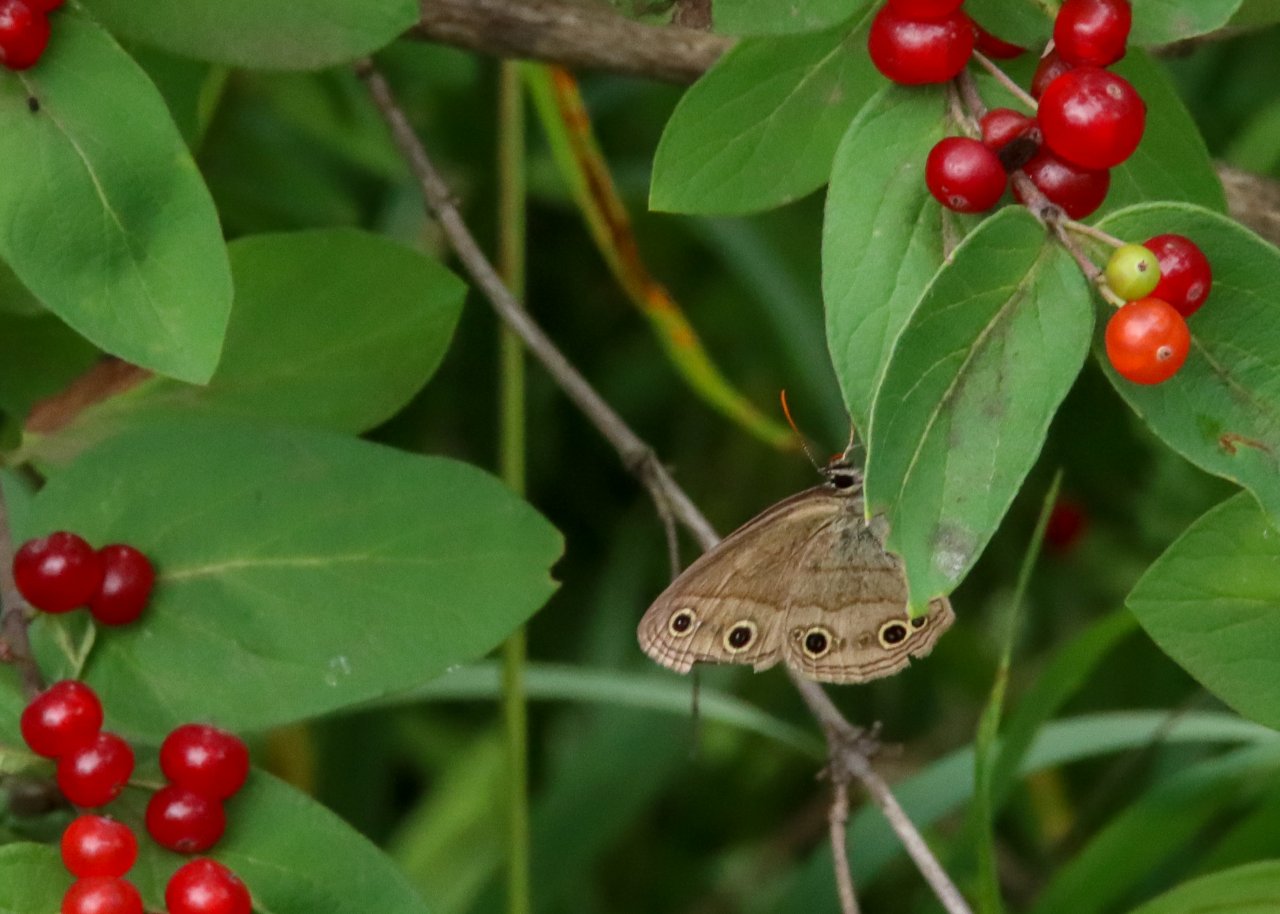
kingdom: Animalia
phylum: Arthropoda
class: Insecta
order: Lepidoptera
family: Nymphalidae
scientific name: Nymphalidae
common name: Brushfoots
